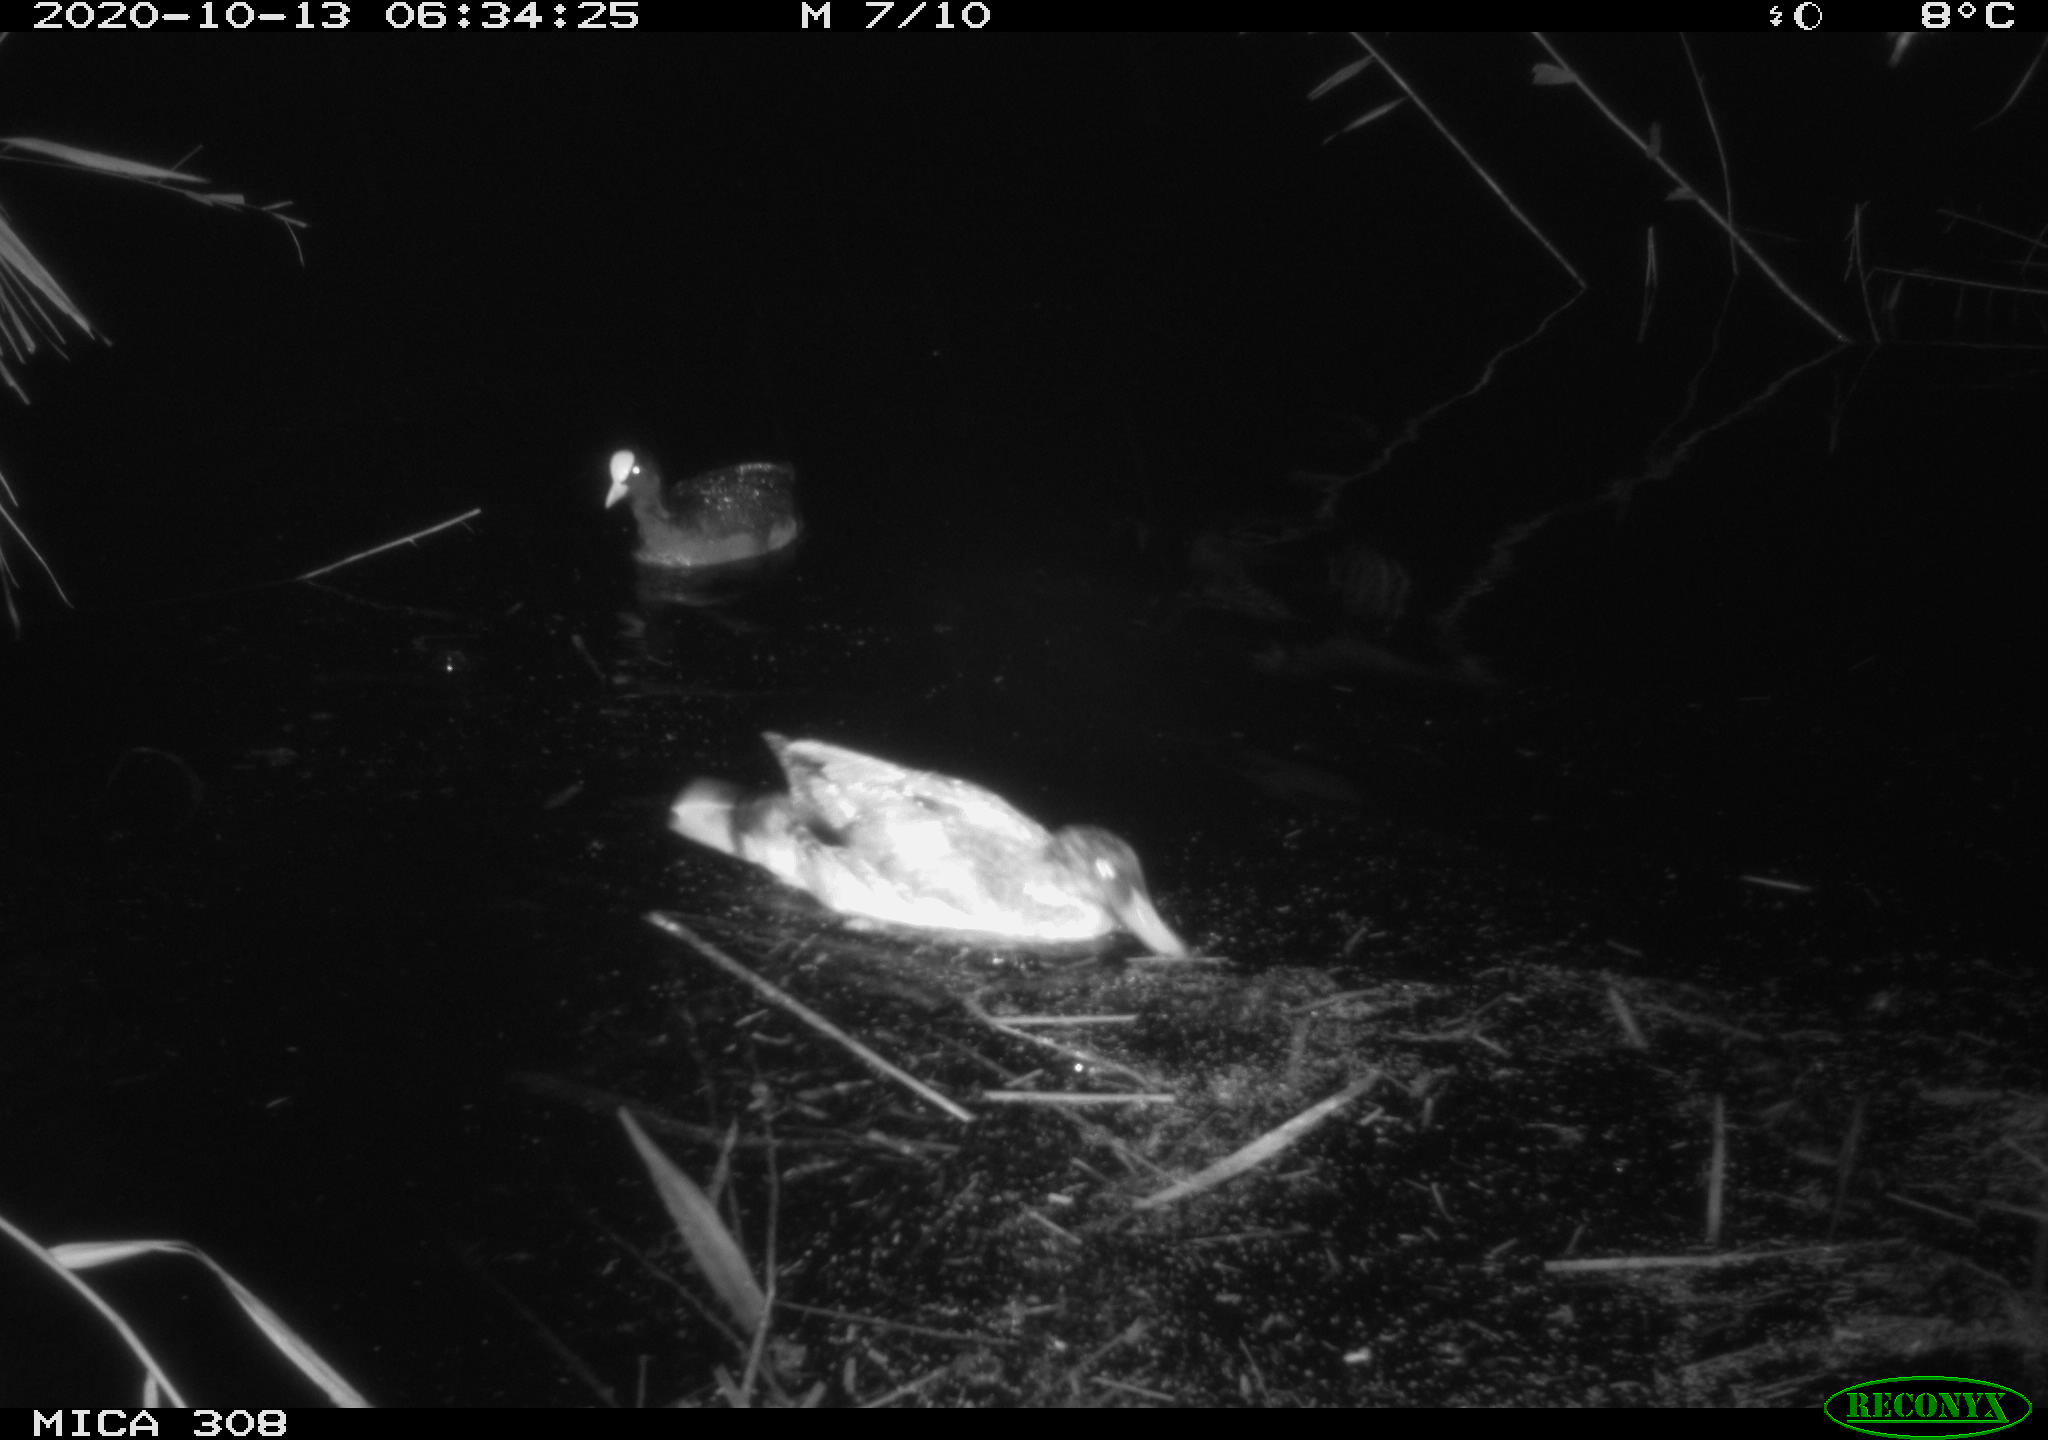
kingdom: Animalia
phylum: Chordata
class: Aves
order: Anseriformes
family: Anatidae
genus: Anas
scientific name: Anas platyrhynchos
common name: Mallard
